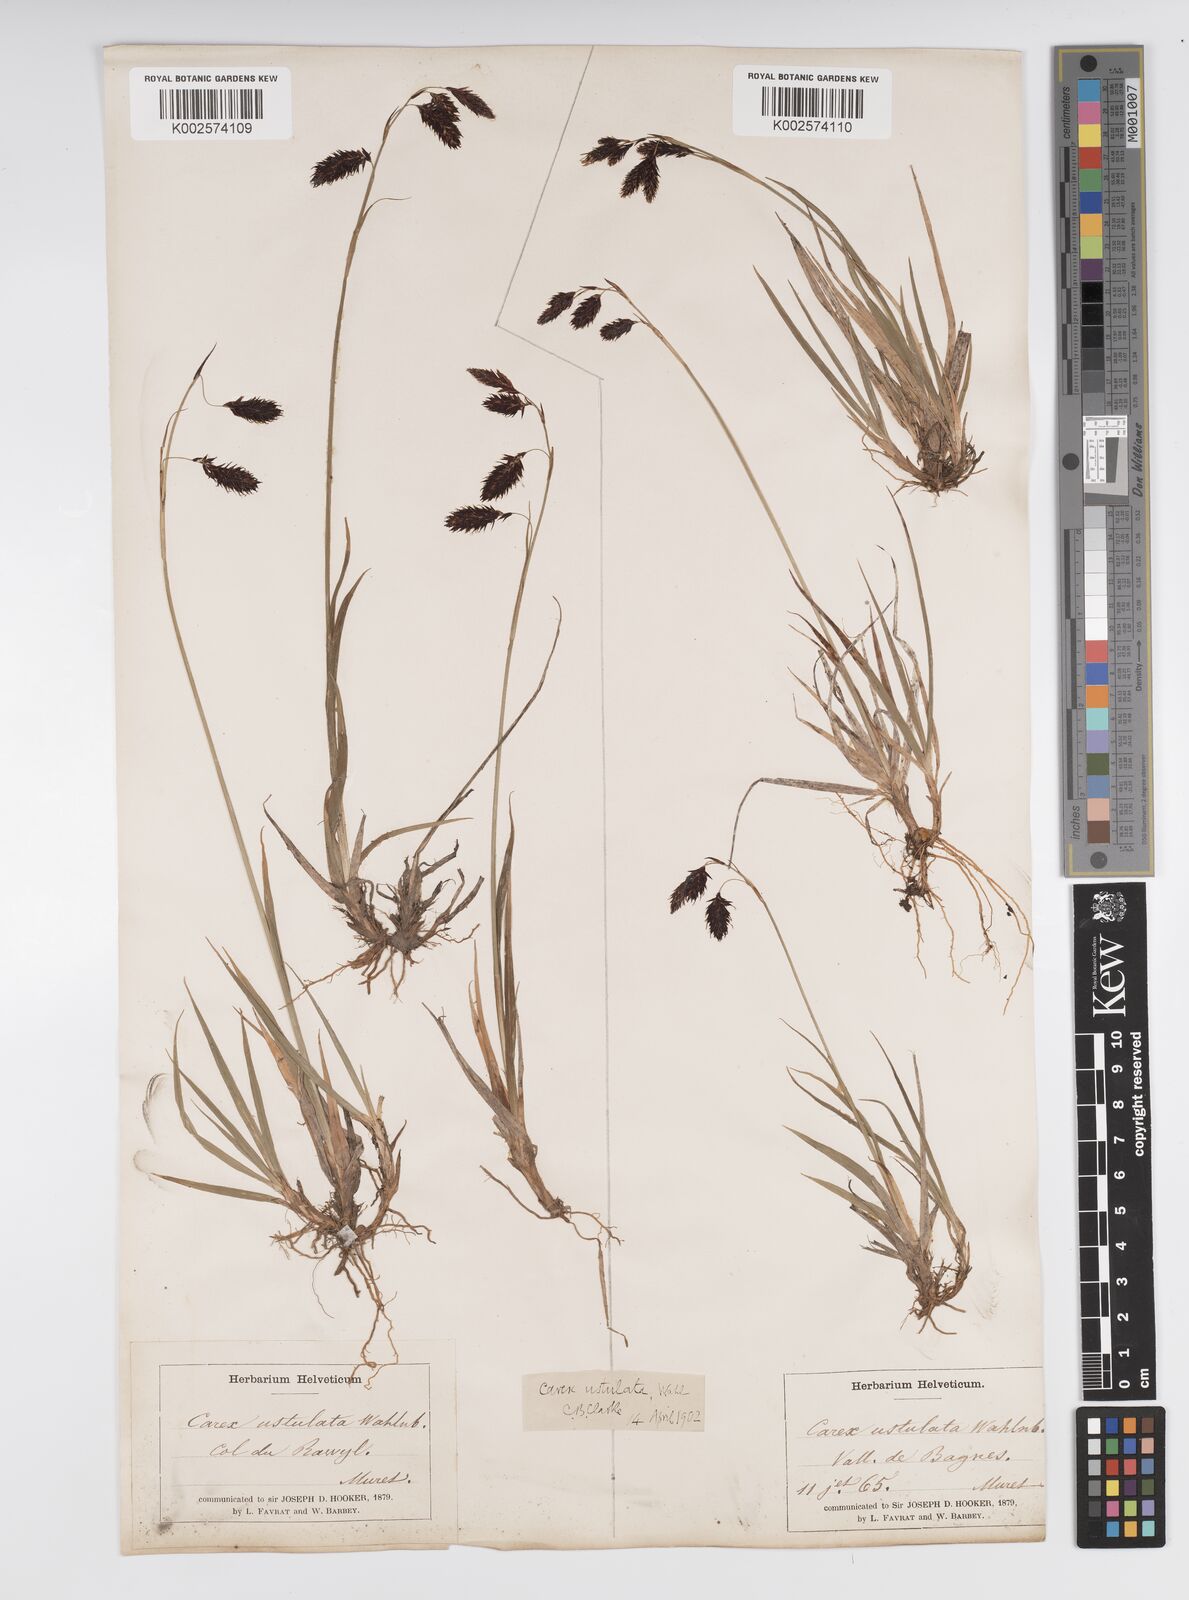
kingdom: Plantae
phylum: Tracheophyta
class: Liliopsida
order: Poales
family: Cyperaceae
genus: Carex
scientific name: Carex atrofusca
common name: Scorched alpine-sedge
